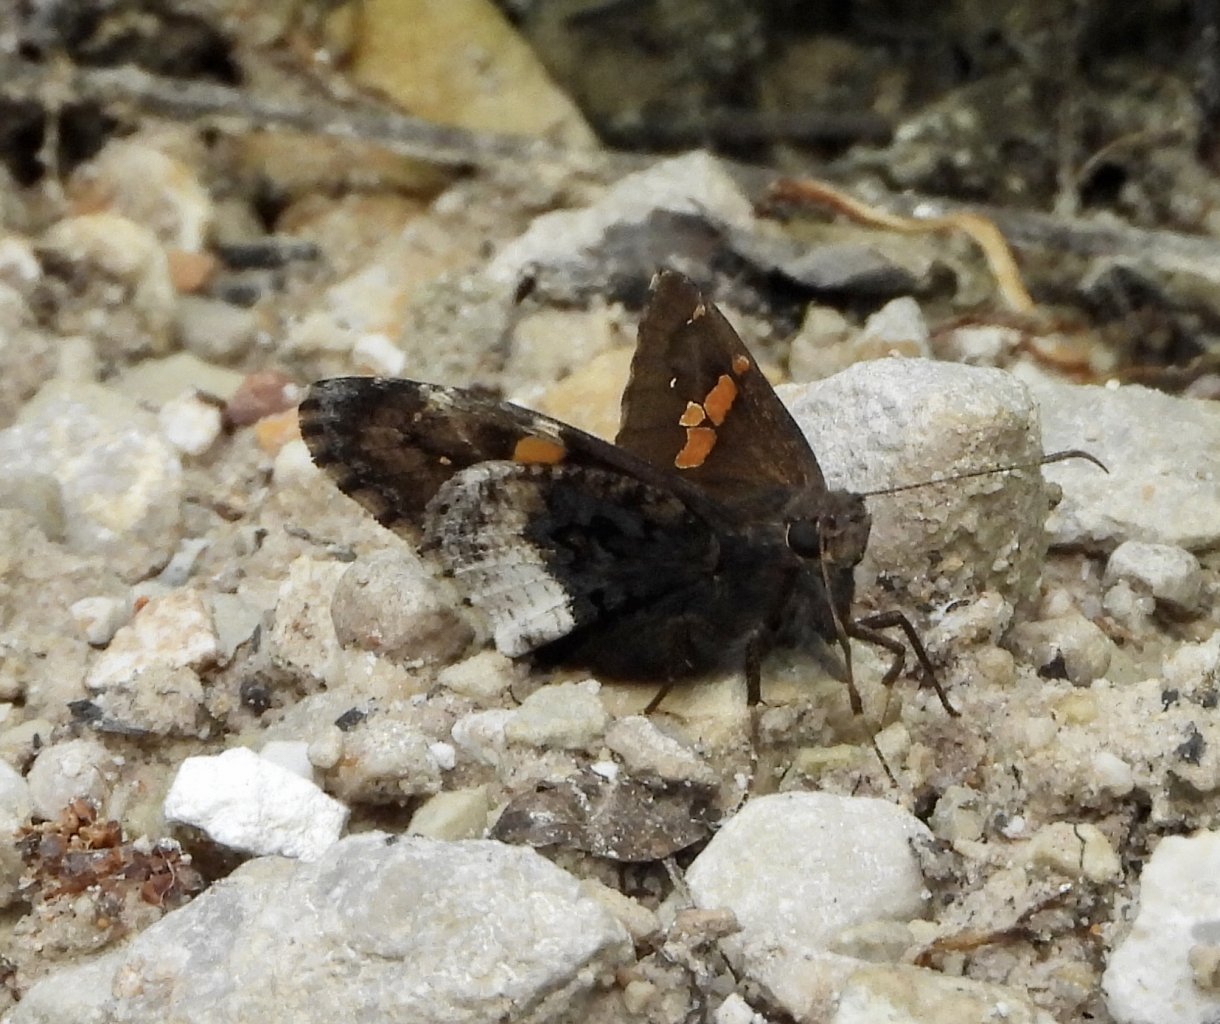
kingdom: Animalia
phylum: Arthropoda
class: Insecta
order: Lepidoptera
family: Hesperiidae
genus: Achalarus
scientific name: Achalarus lyciades
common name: Hoary Edge
